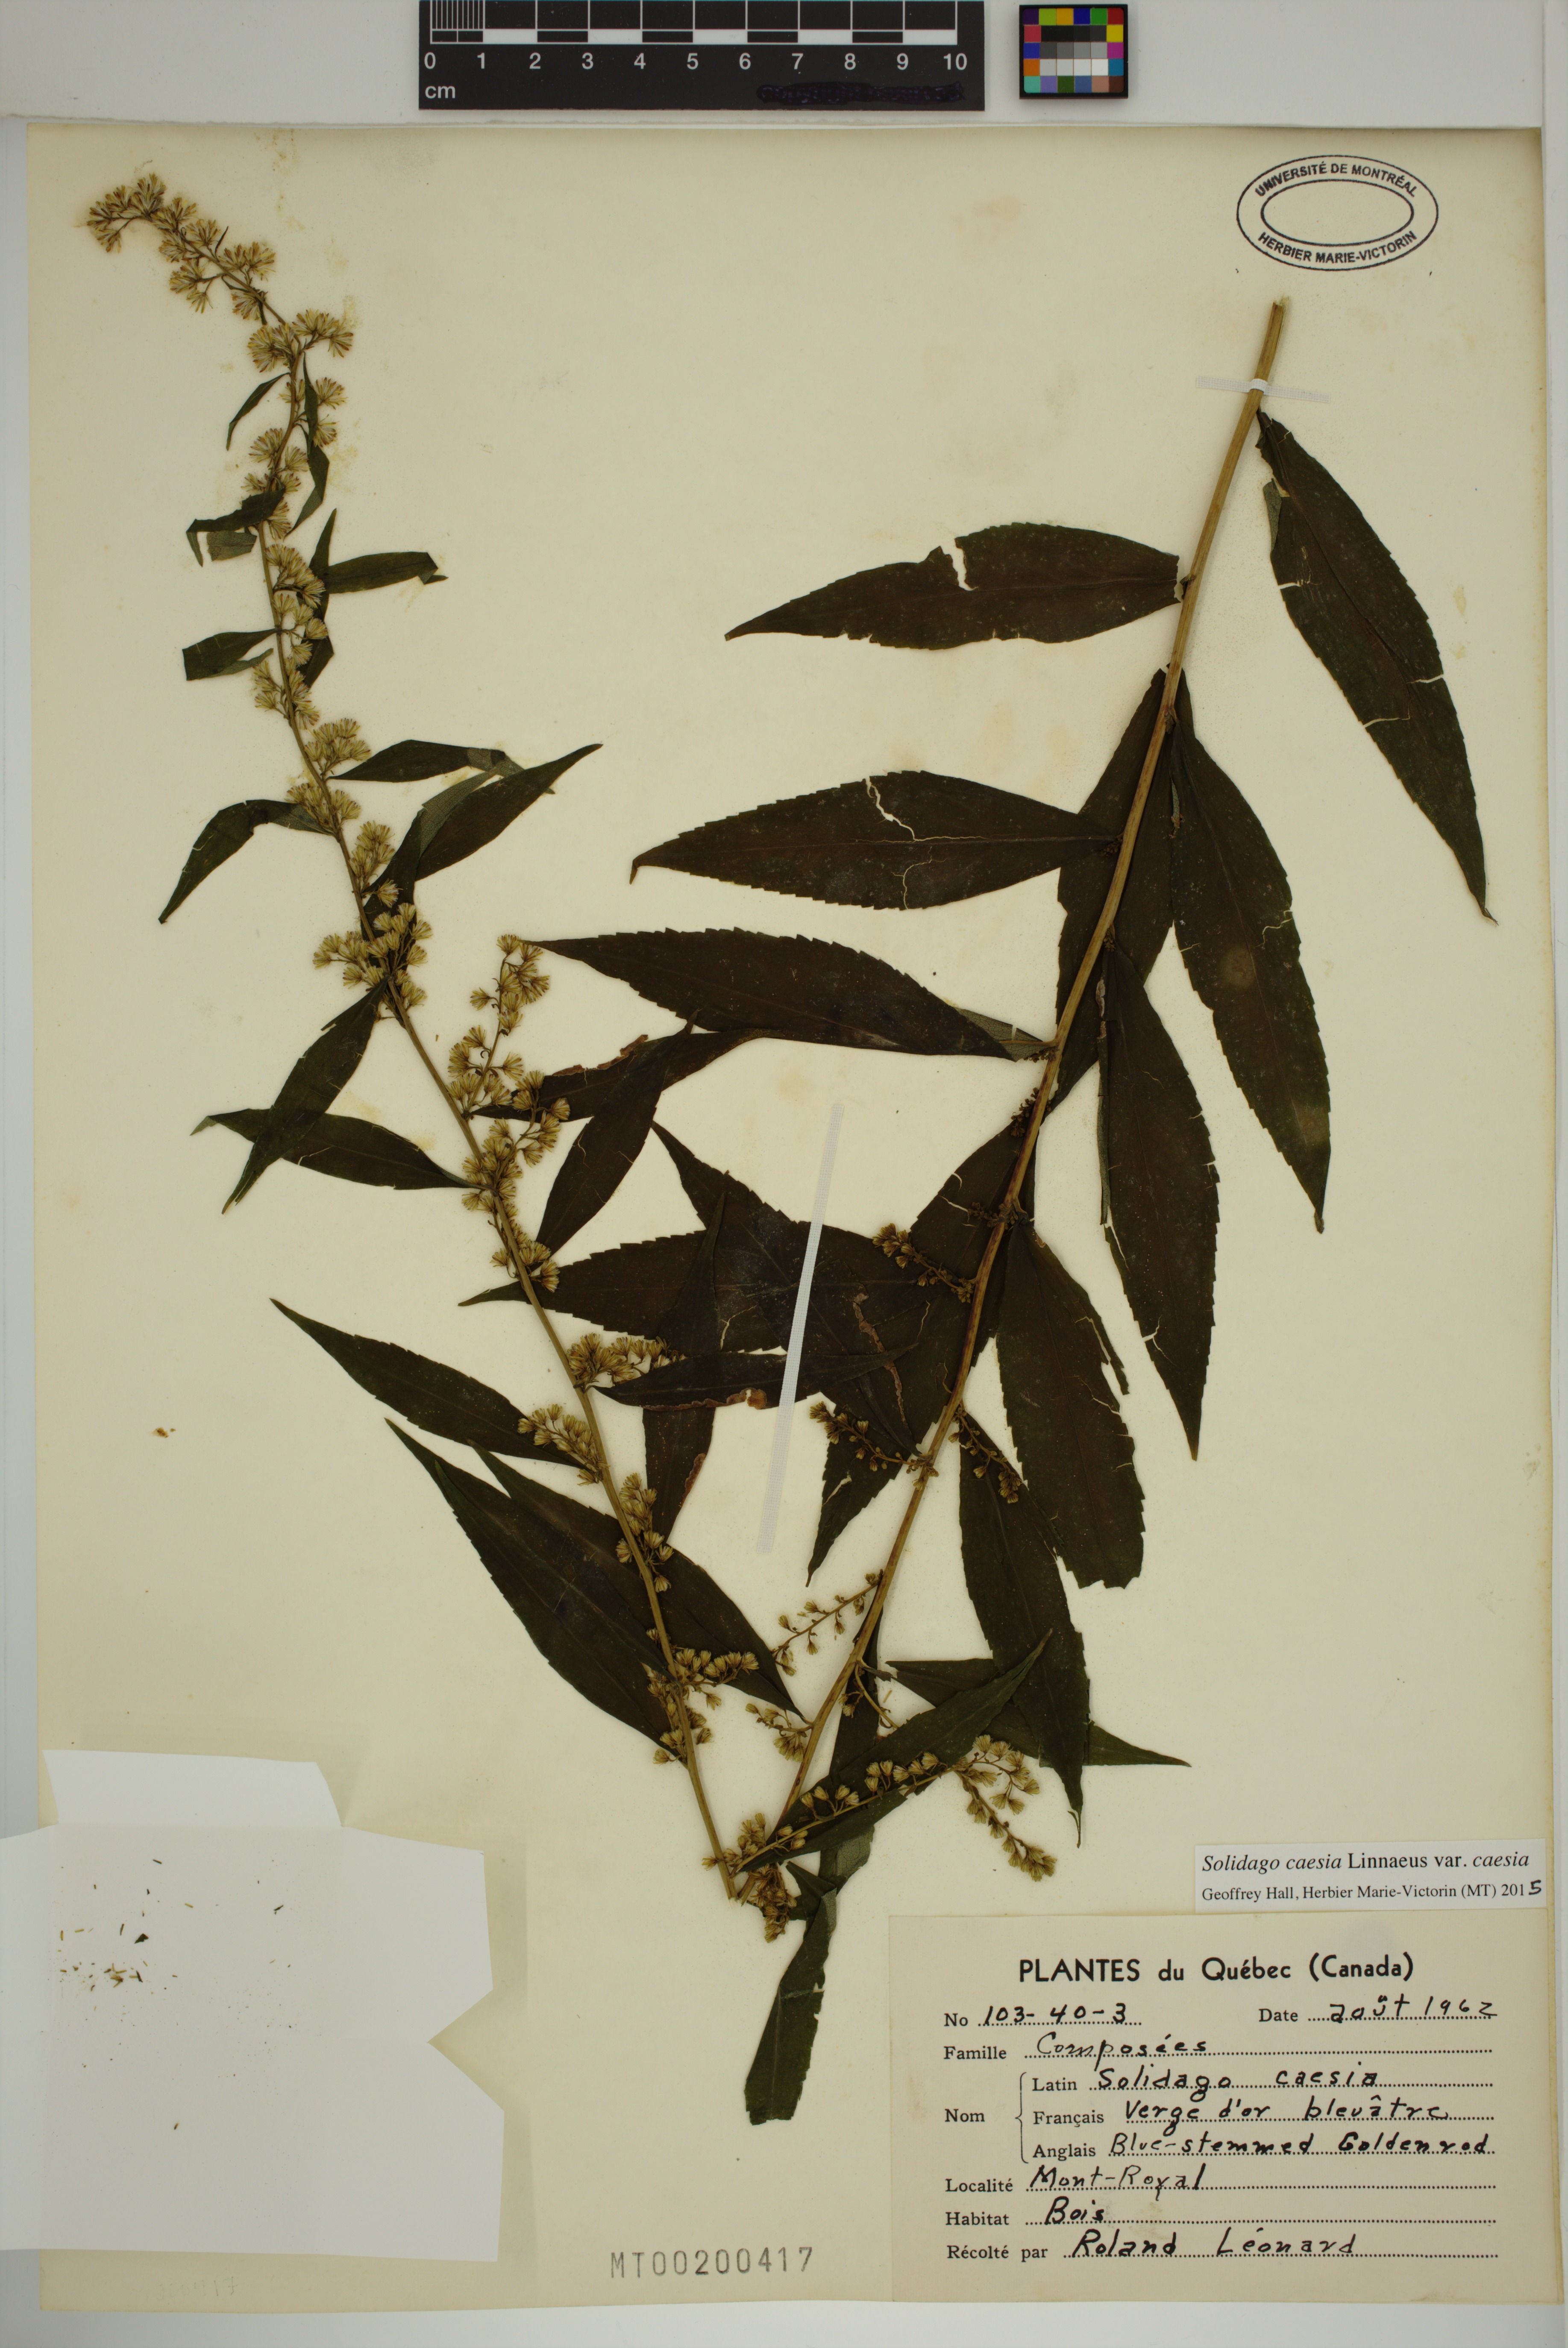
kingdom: Plantae
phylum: Tracheophyta
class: Magnoliopsida
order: Asterales
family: Asteraceae
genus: Solidago
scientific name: Solidago caesia
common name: Woodland goldenrod
